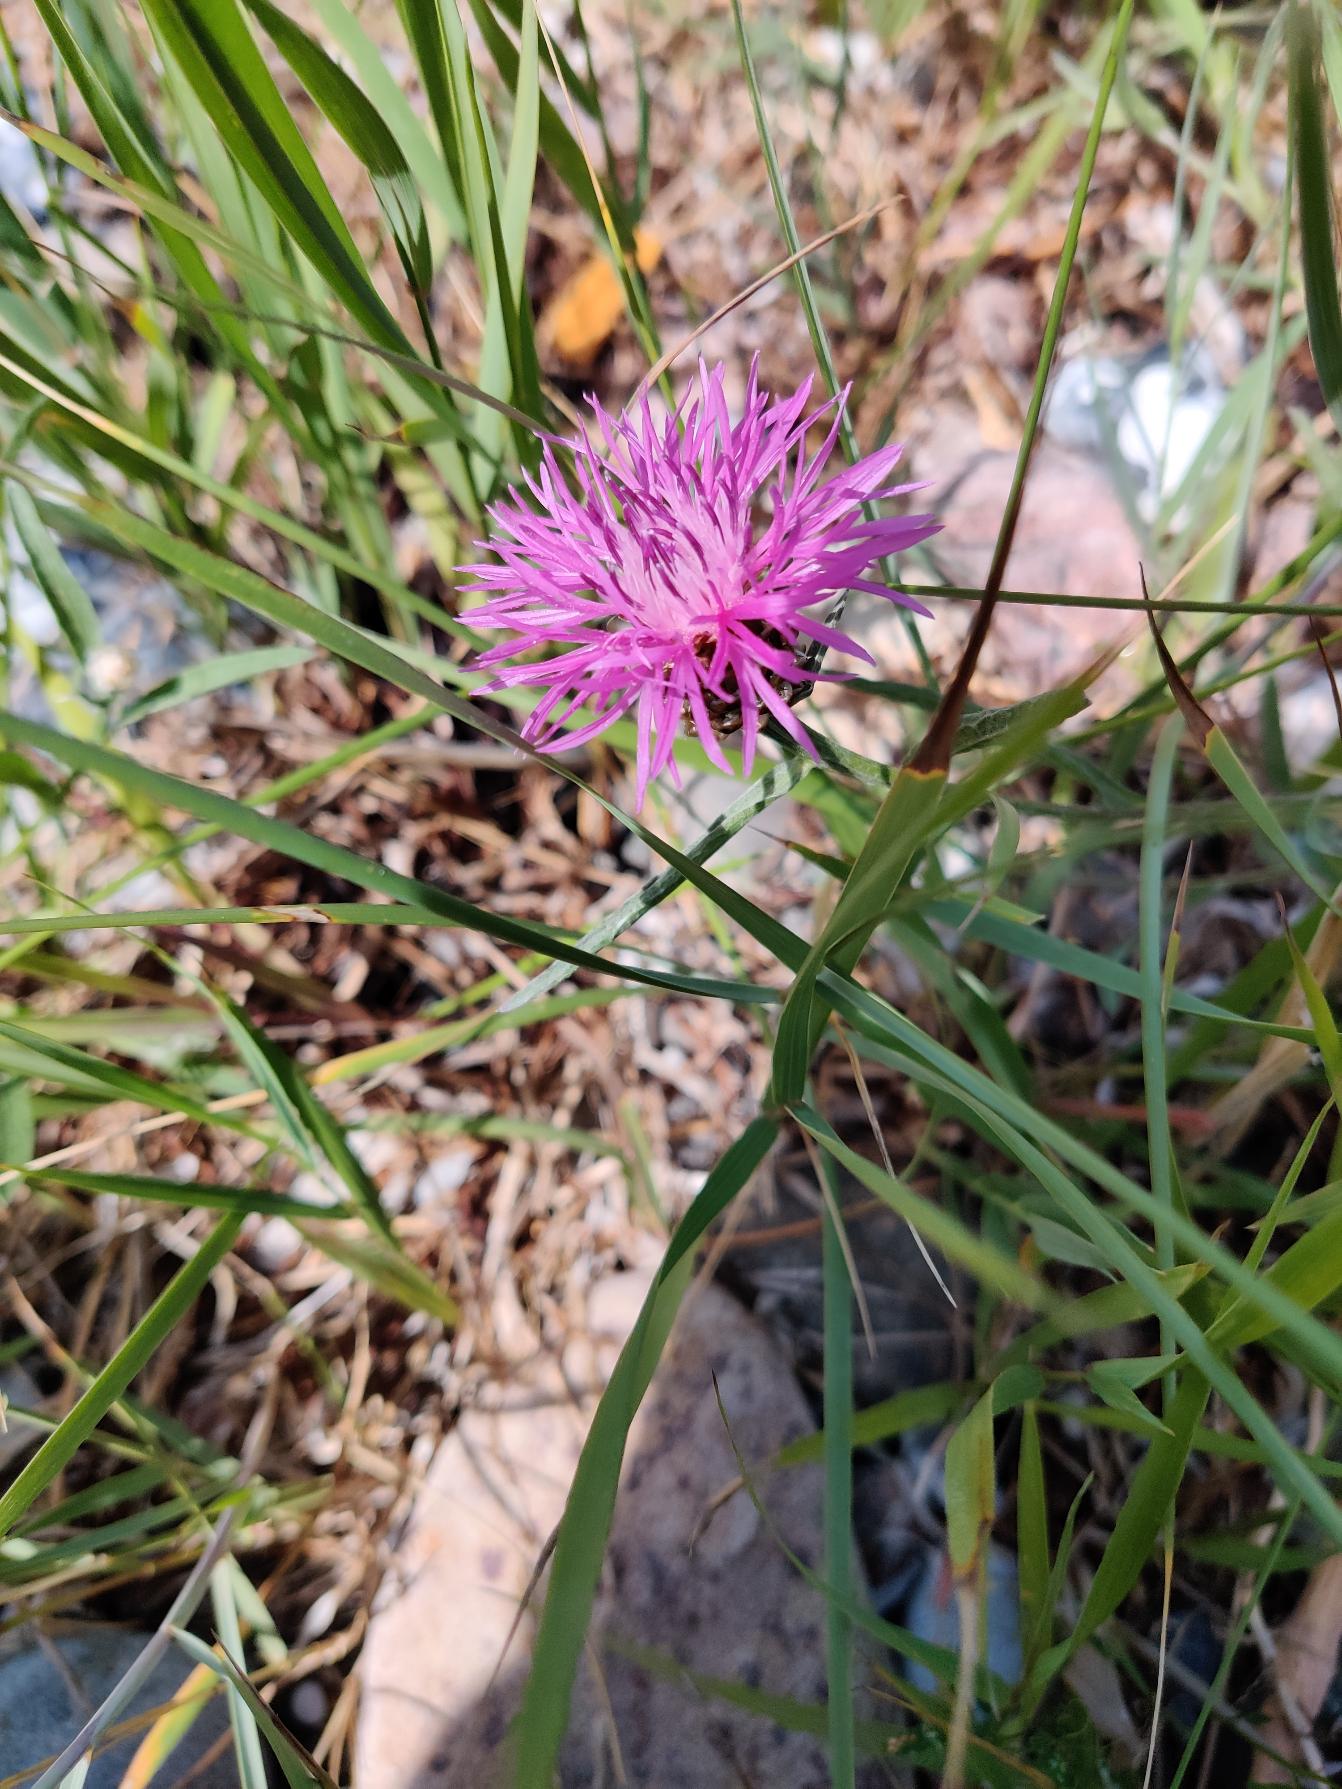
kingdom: Plantae
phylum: Tracheophyta
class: Magnoliopsida
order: Asterales
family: Asteraceae
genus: Centaurea
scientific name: Centaurea jacea
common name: Almindelig knopurt
